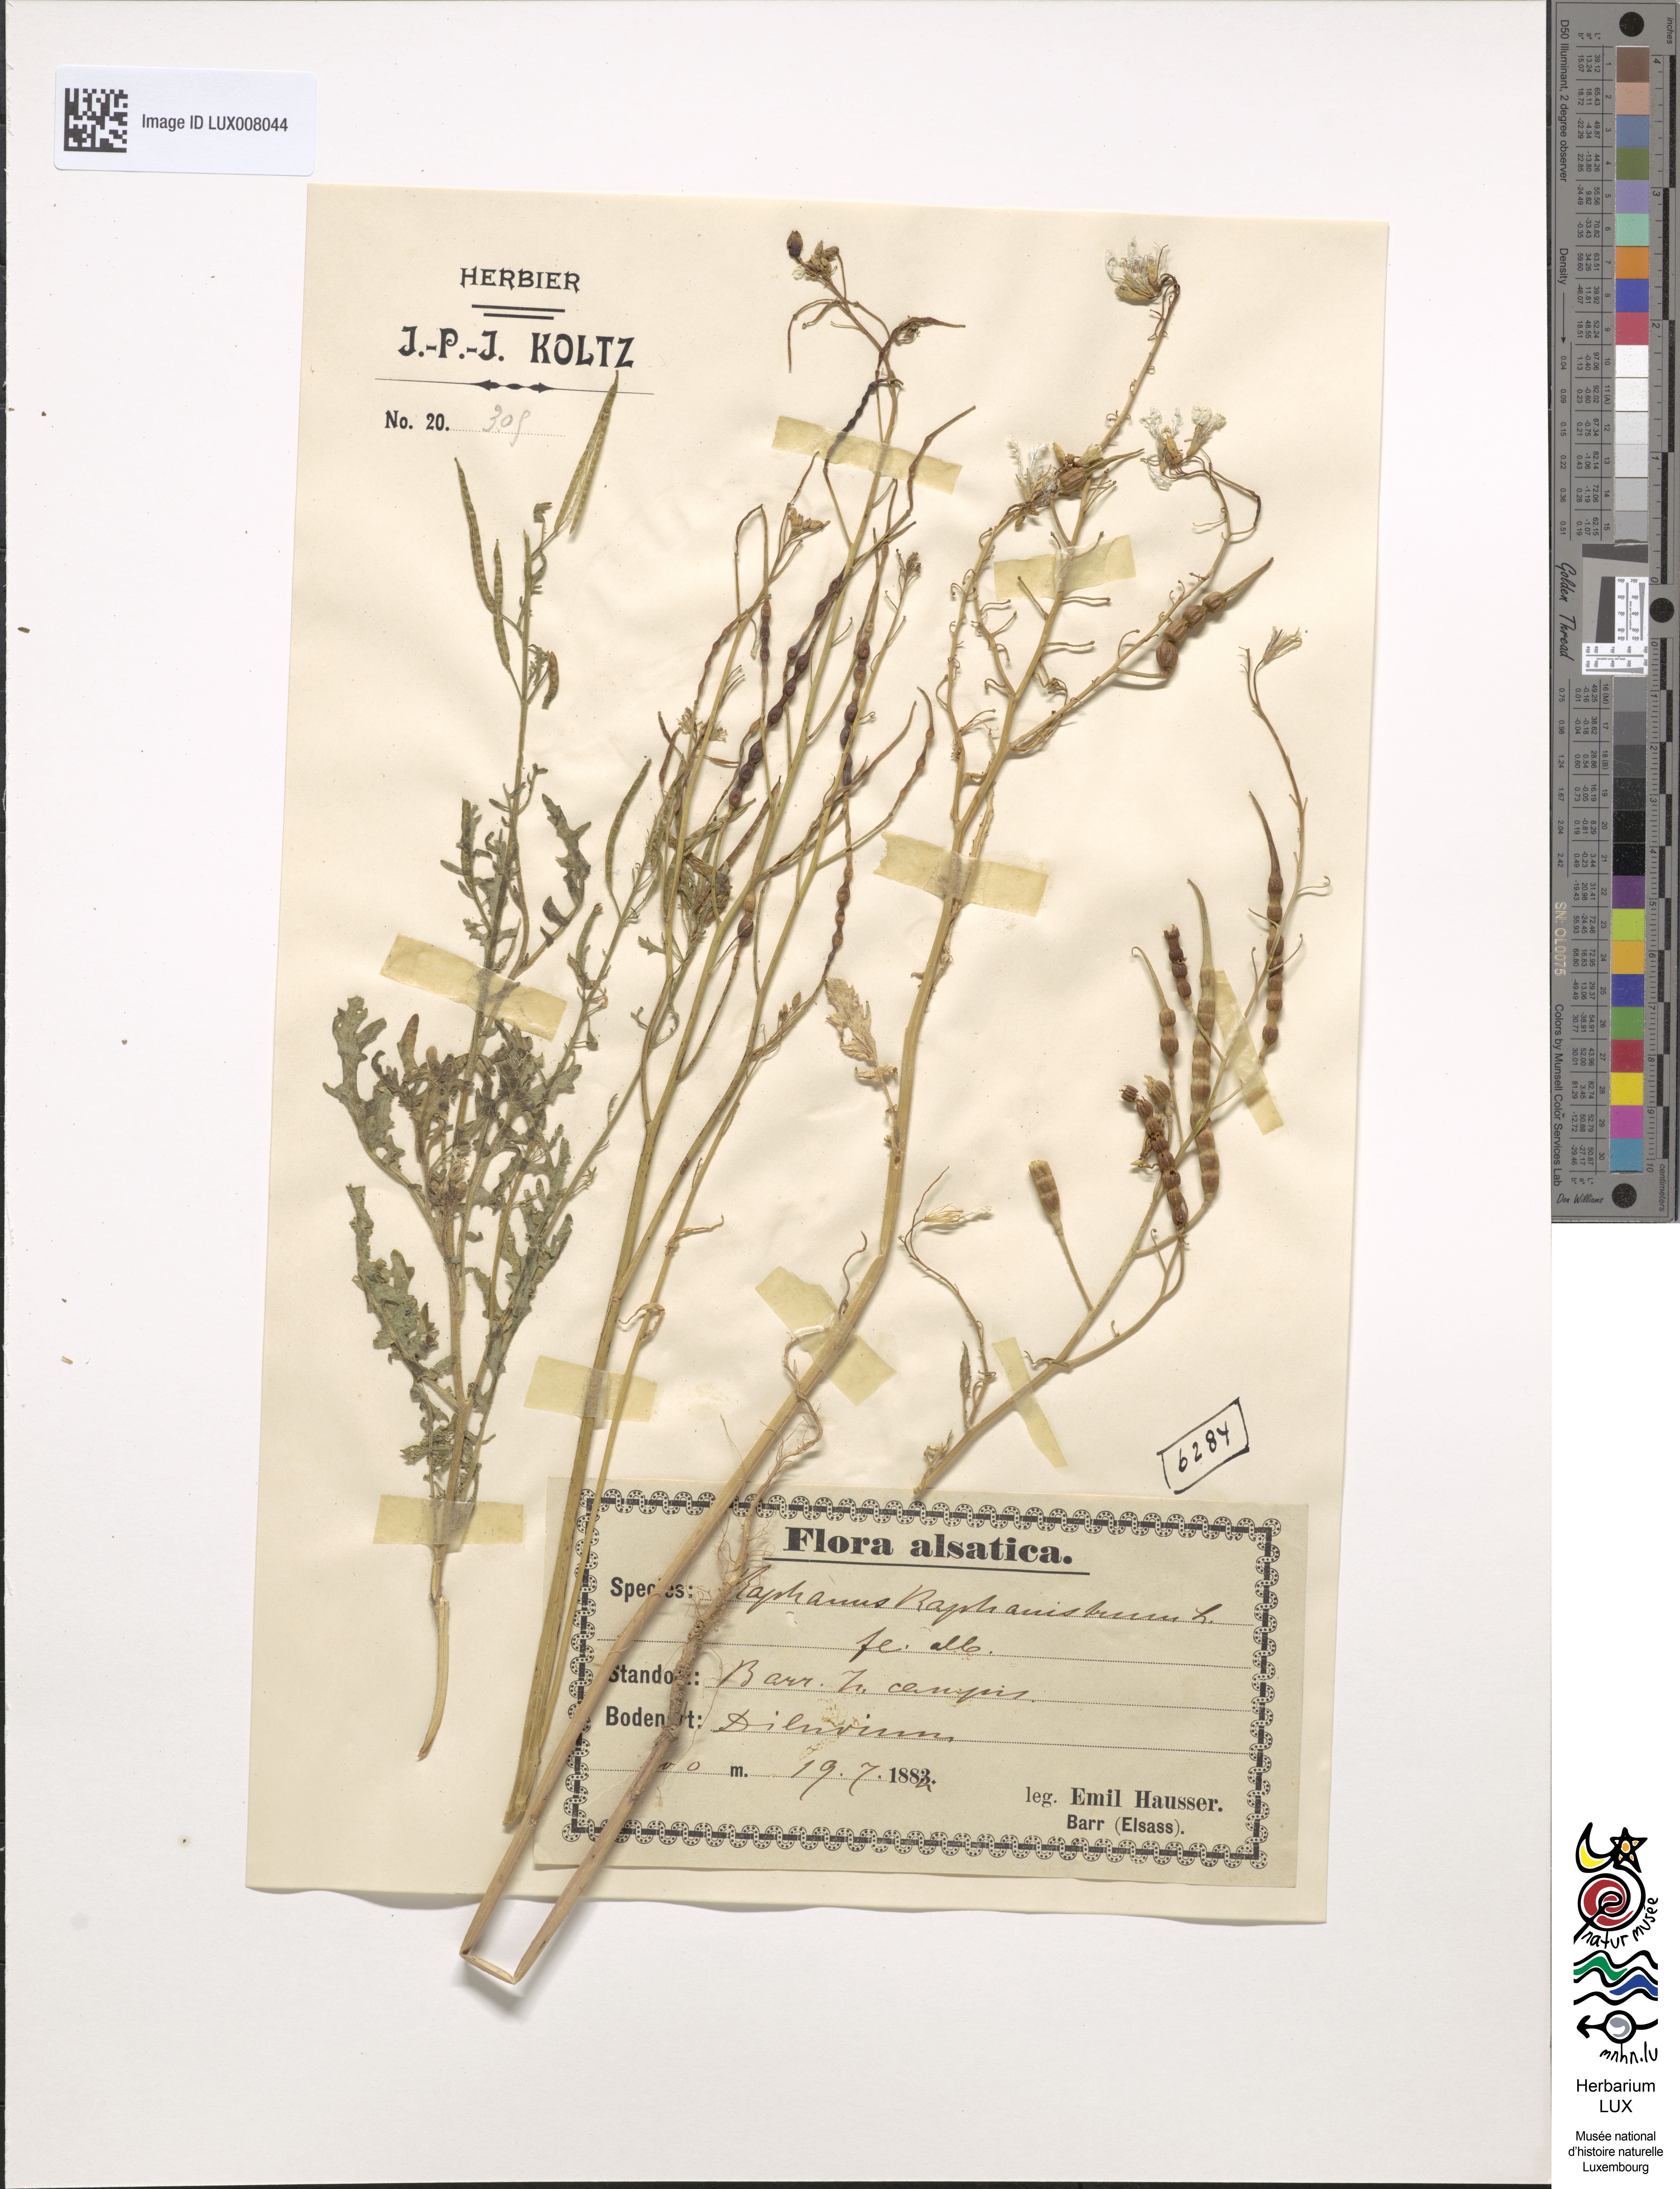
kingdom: Plantae
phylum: Tracheophyta
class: Magnoliopsida
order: Brassicales
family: Brassicaceae
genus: Raphanus
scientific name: Raphanus raphanistrum
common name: Wild radish
